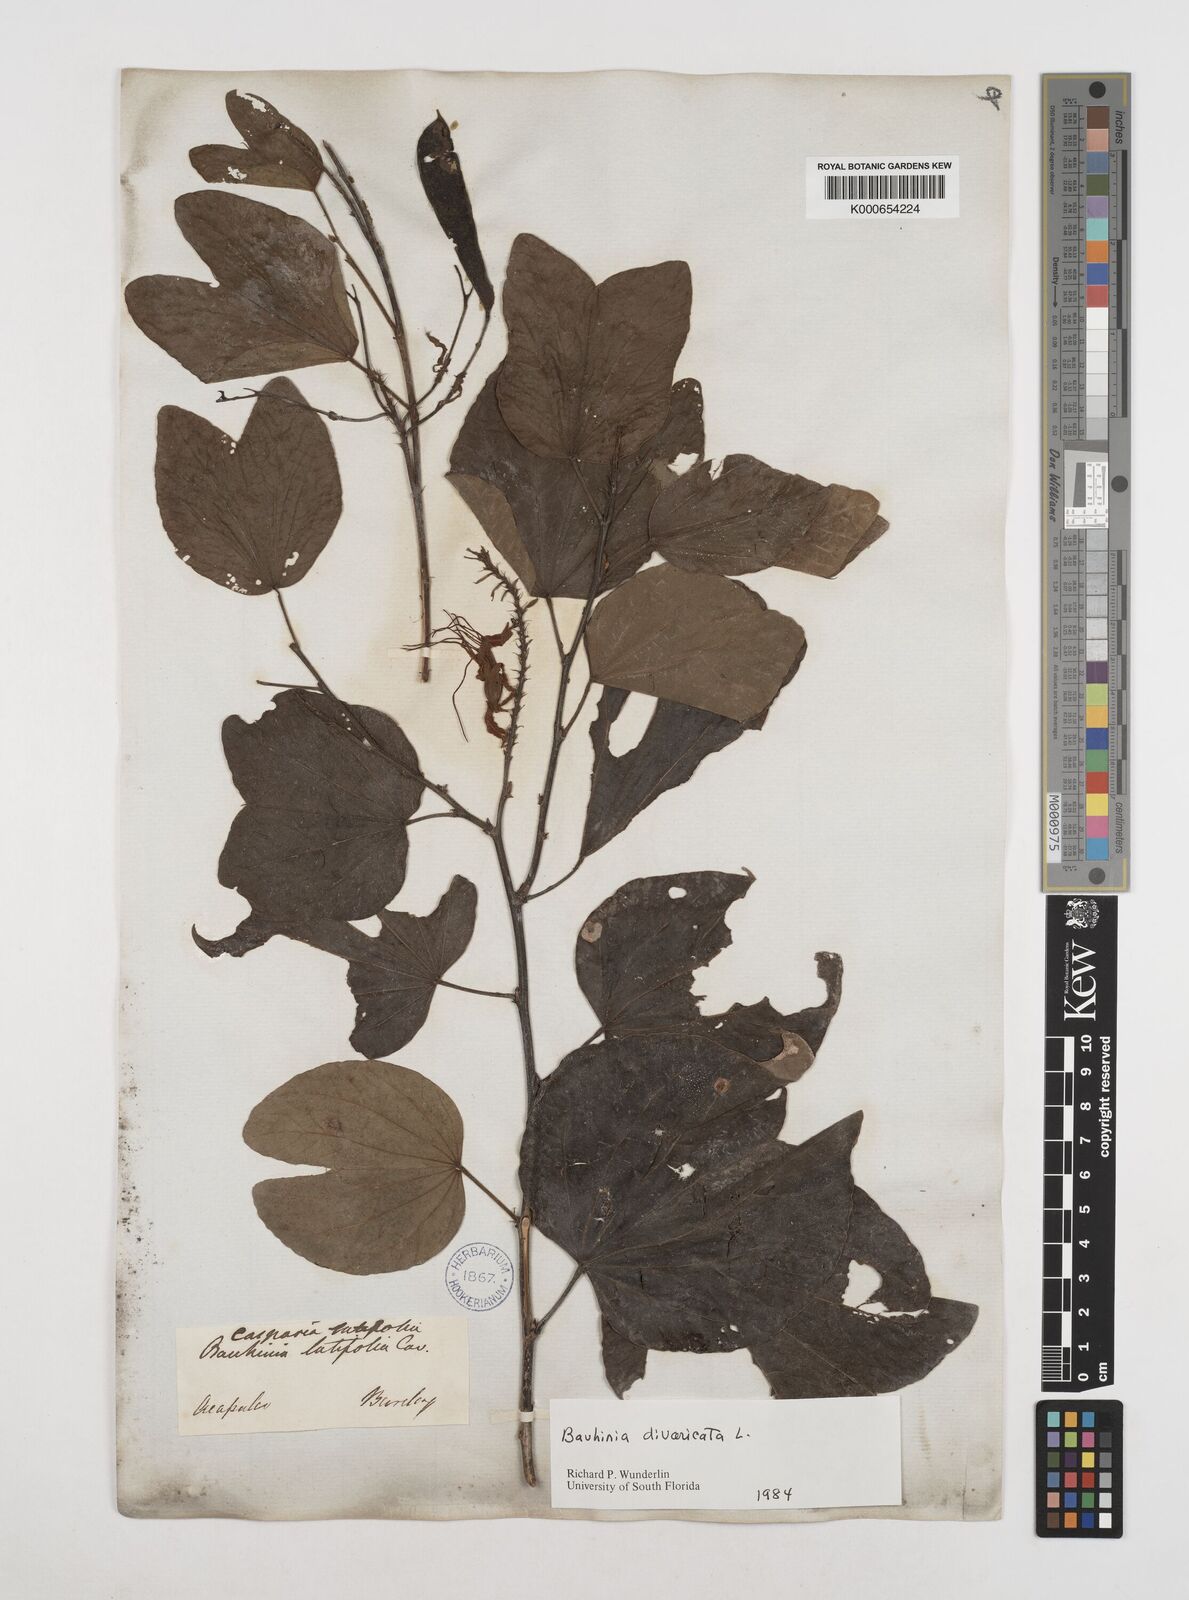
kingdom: Plantae
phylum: Tracheophyta
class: Magnoliopsida
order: Fabales
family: Fabaceae
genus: Bauhinia
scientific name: Bauhinia divaricata
